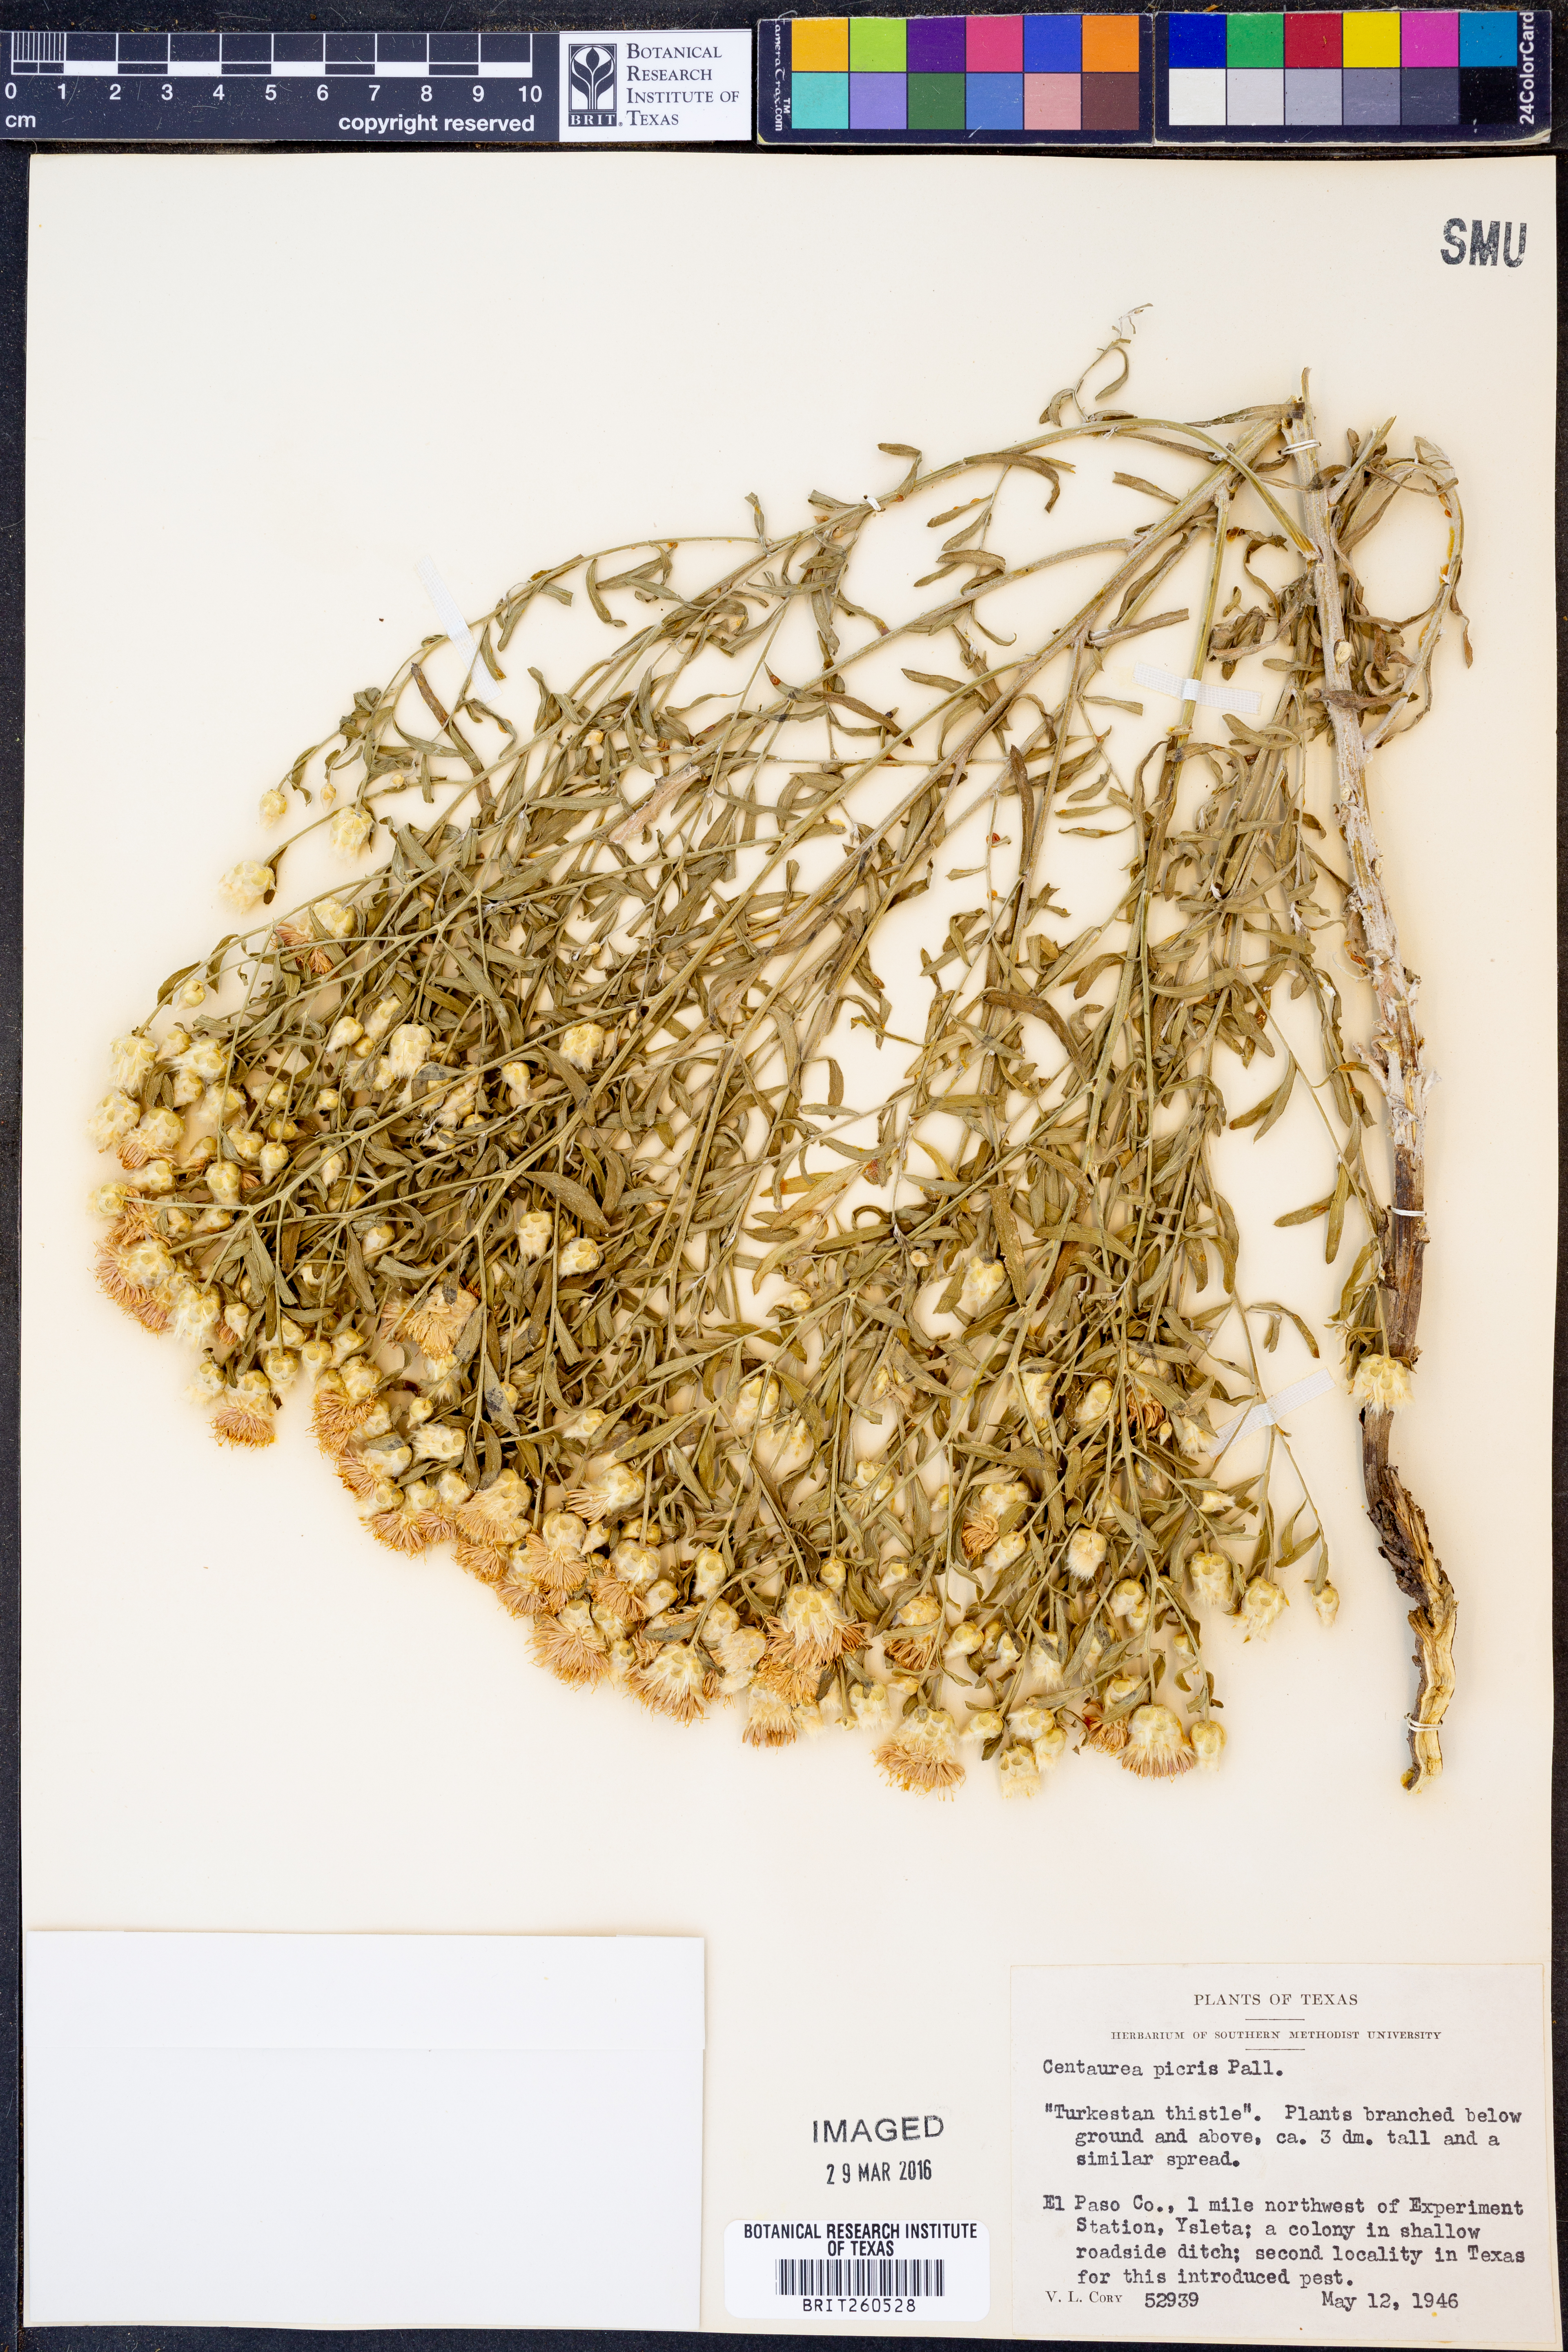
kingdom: Plantae
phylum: Tracheophyta
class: Magnoliopsida
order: Asterales
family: Asteraceae
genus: Leuzea
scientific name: Leuzea repens
